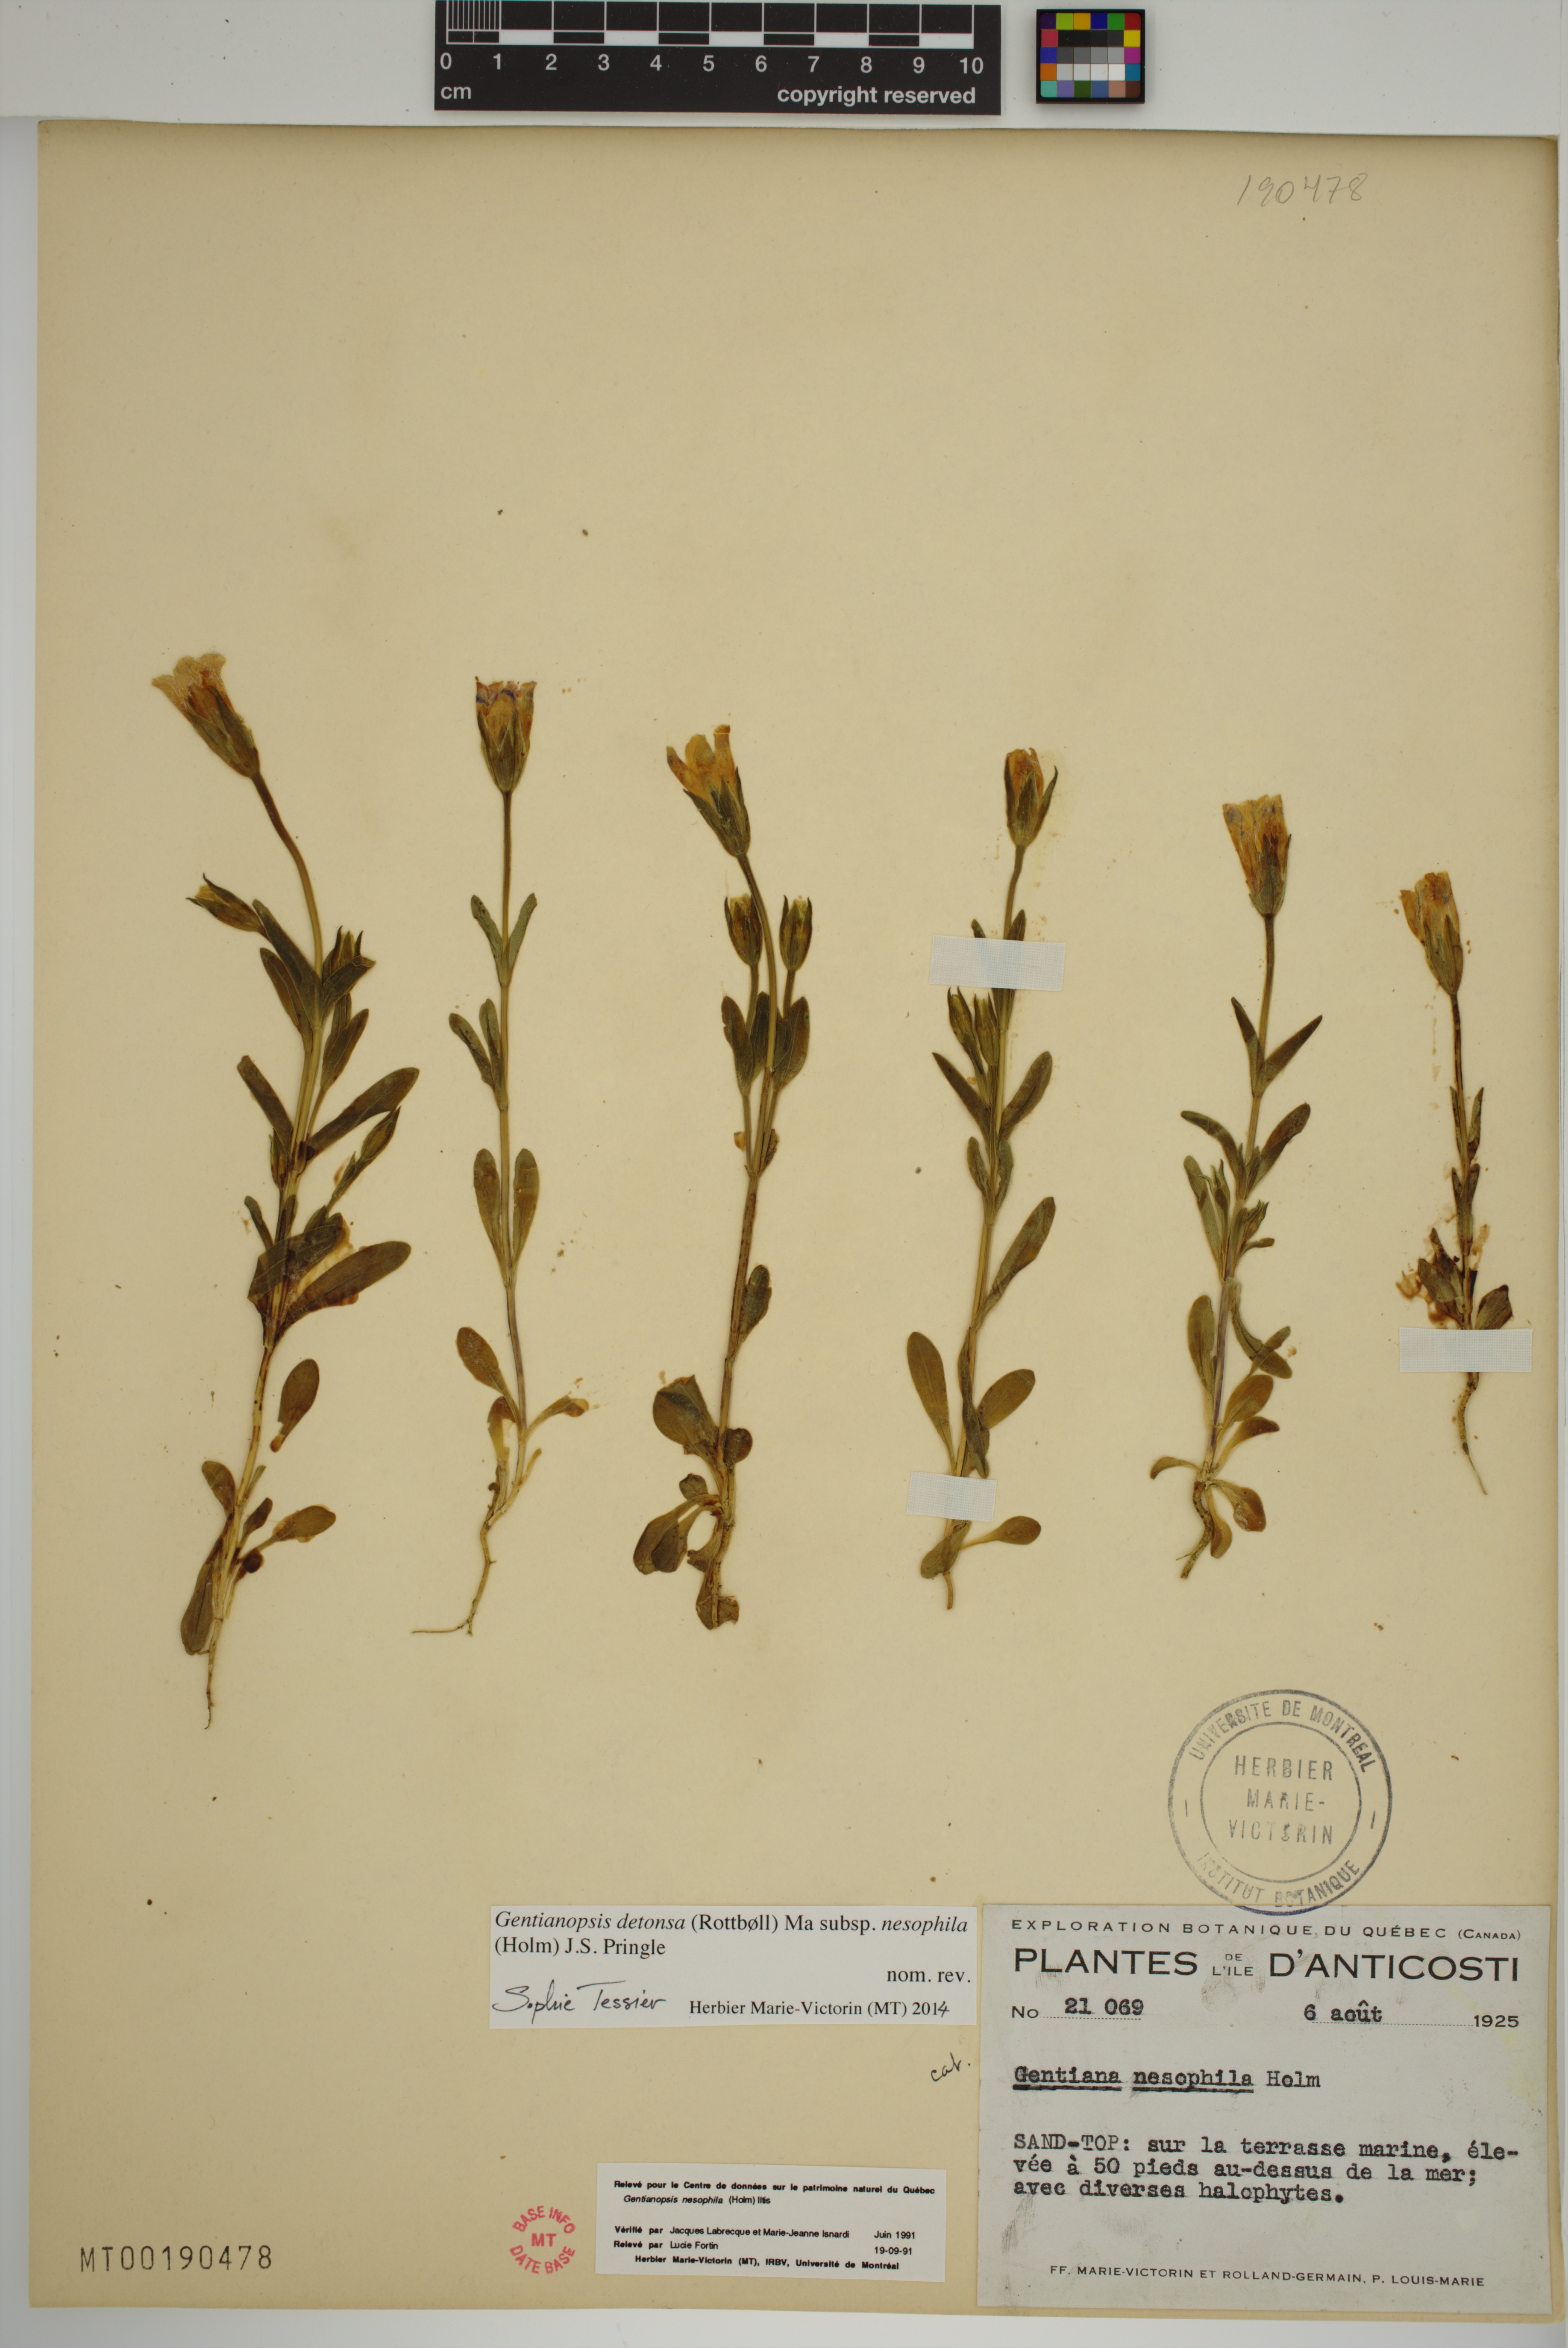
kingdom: Plantae
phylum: Tracheophyta
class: Magnoliopsida
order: Gentianales
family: Gentianaceae
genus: Gentianopsis
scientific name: Gentianopsis nesophila
